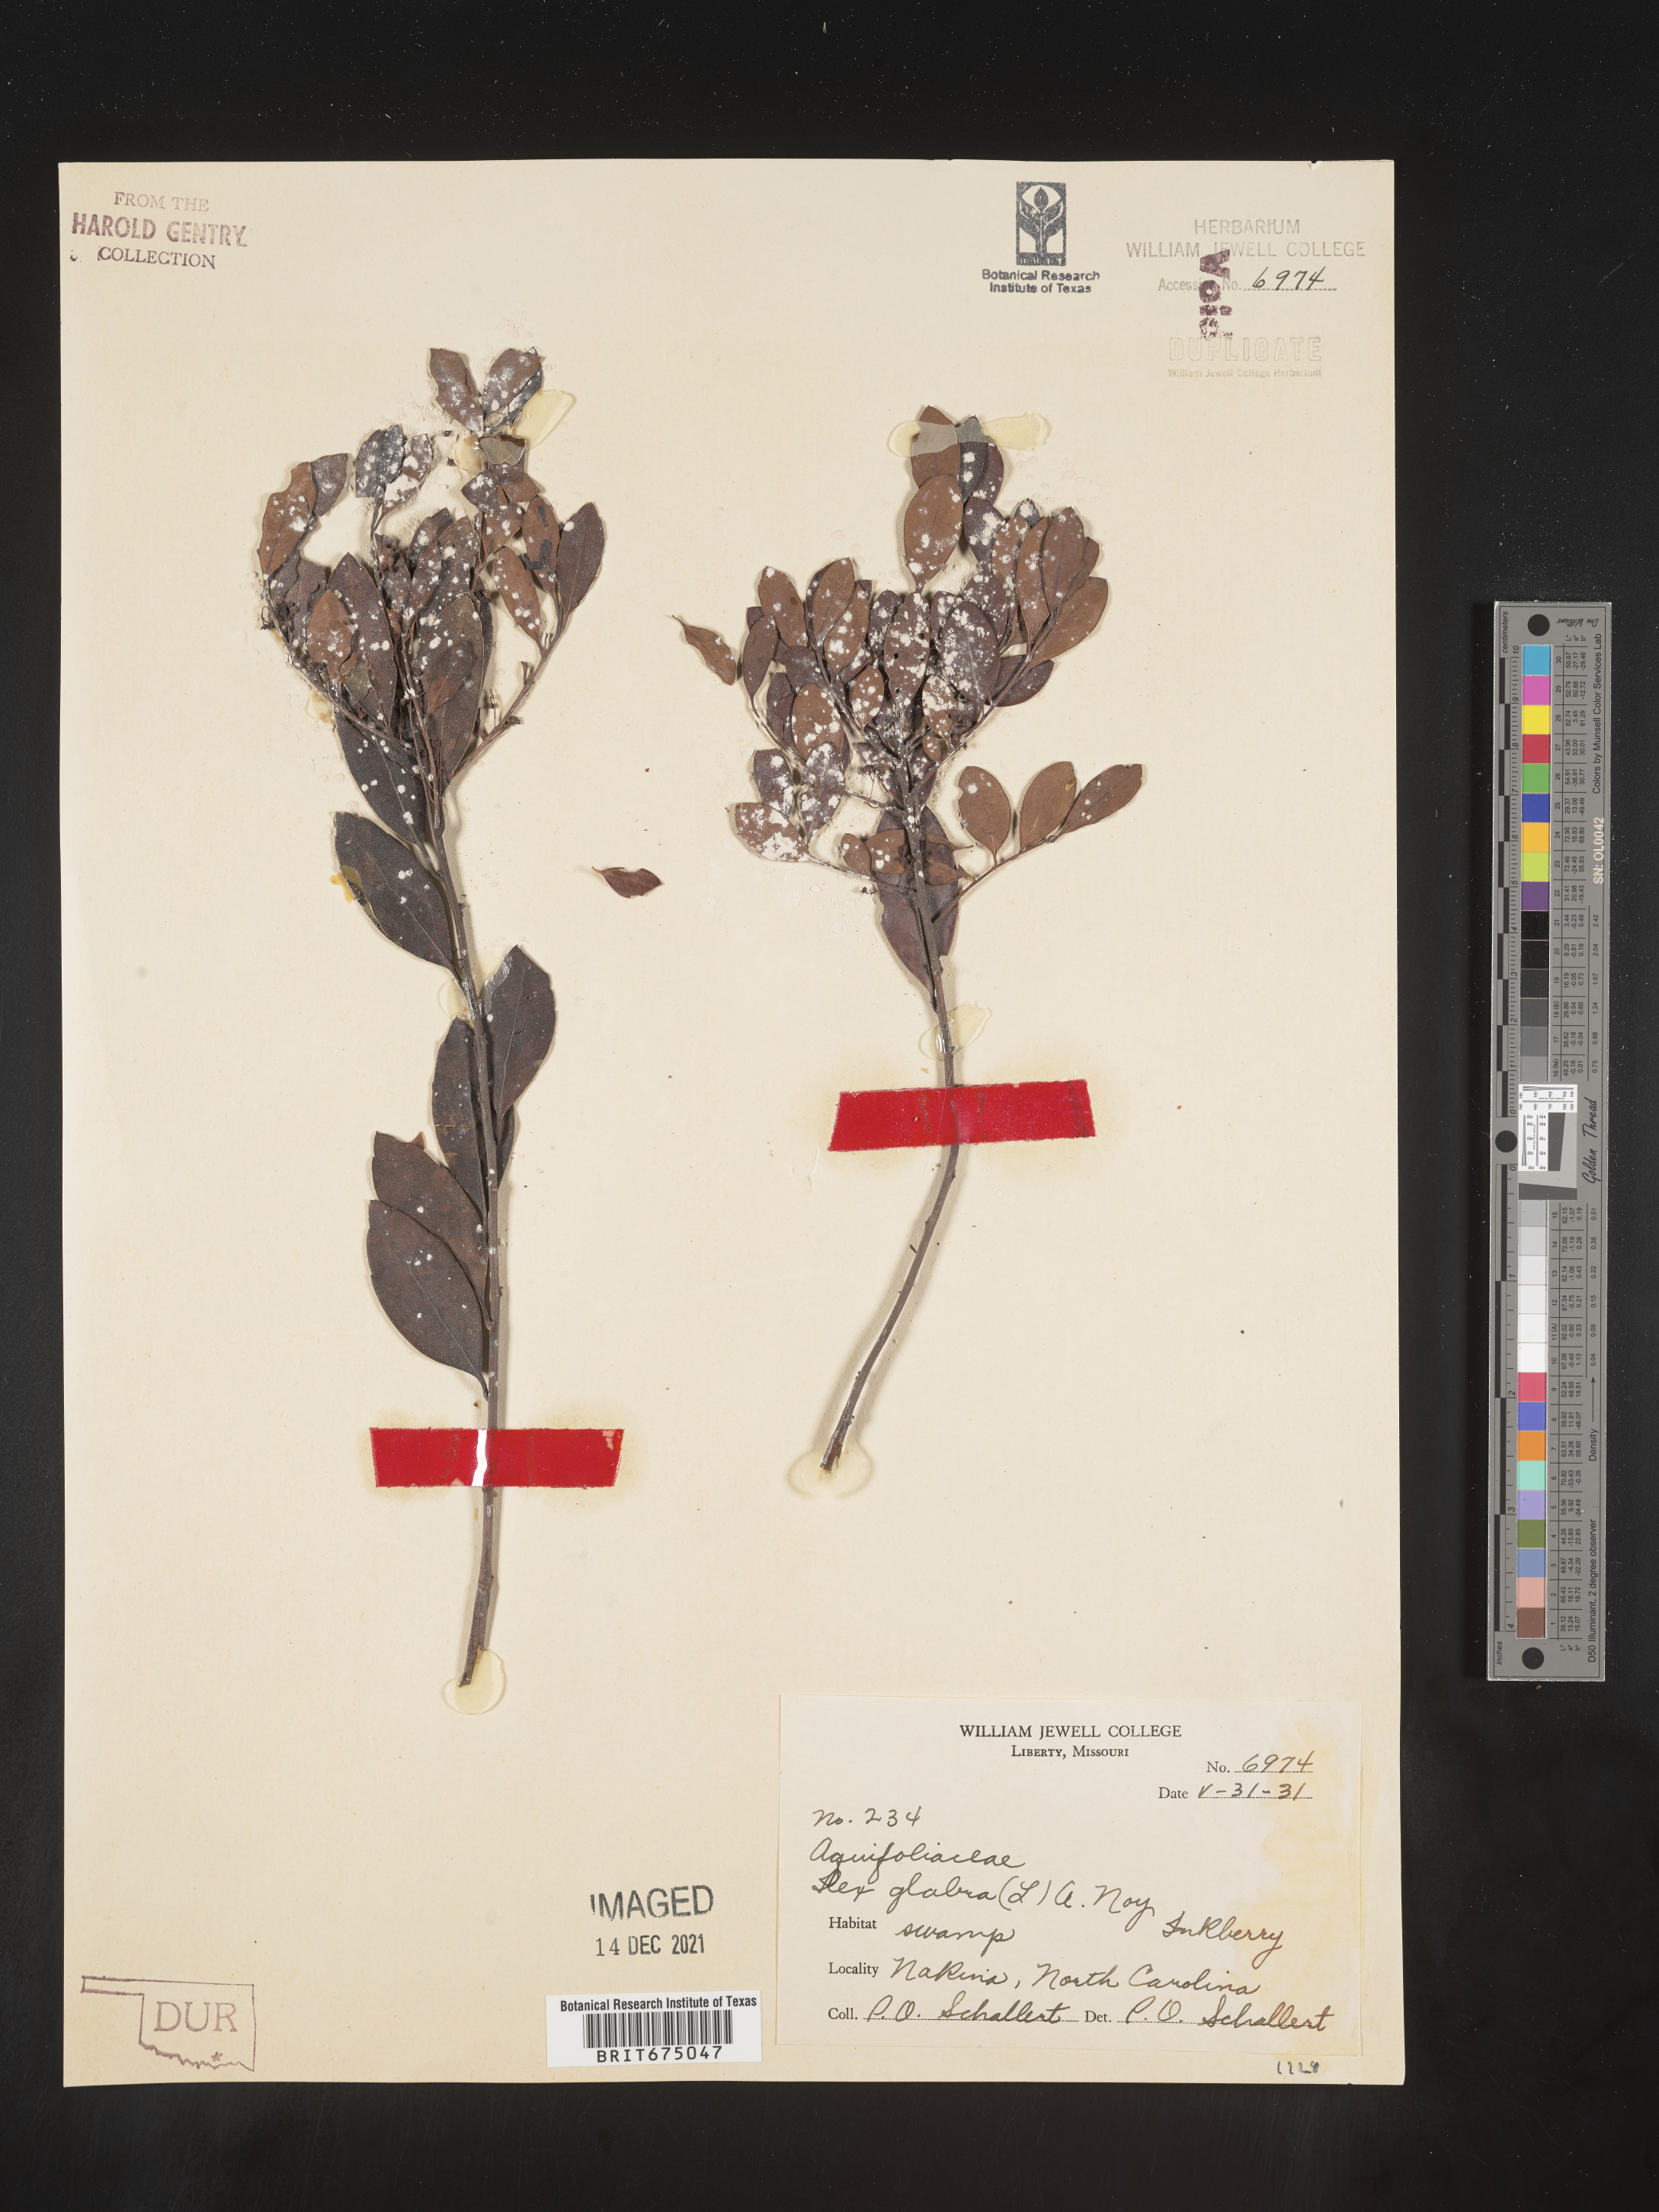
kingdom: Plantae
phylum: Tracheophyta
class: Magnoliopsida
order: Aquifoliales
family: Aquifoliaceae
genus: Ilex
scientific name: Ilex glabra
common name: Bitter gallberry
